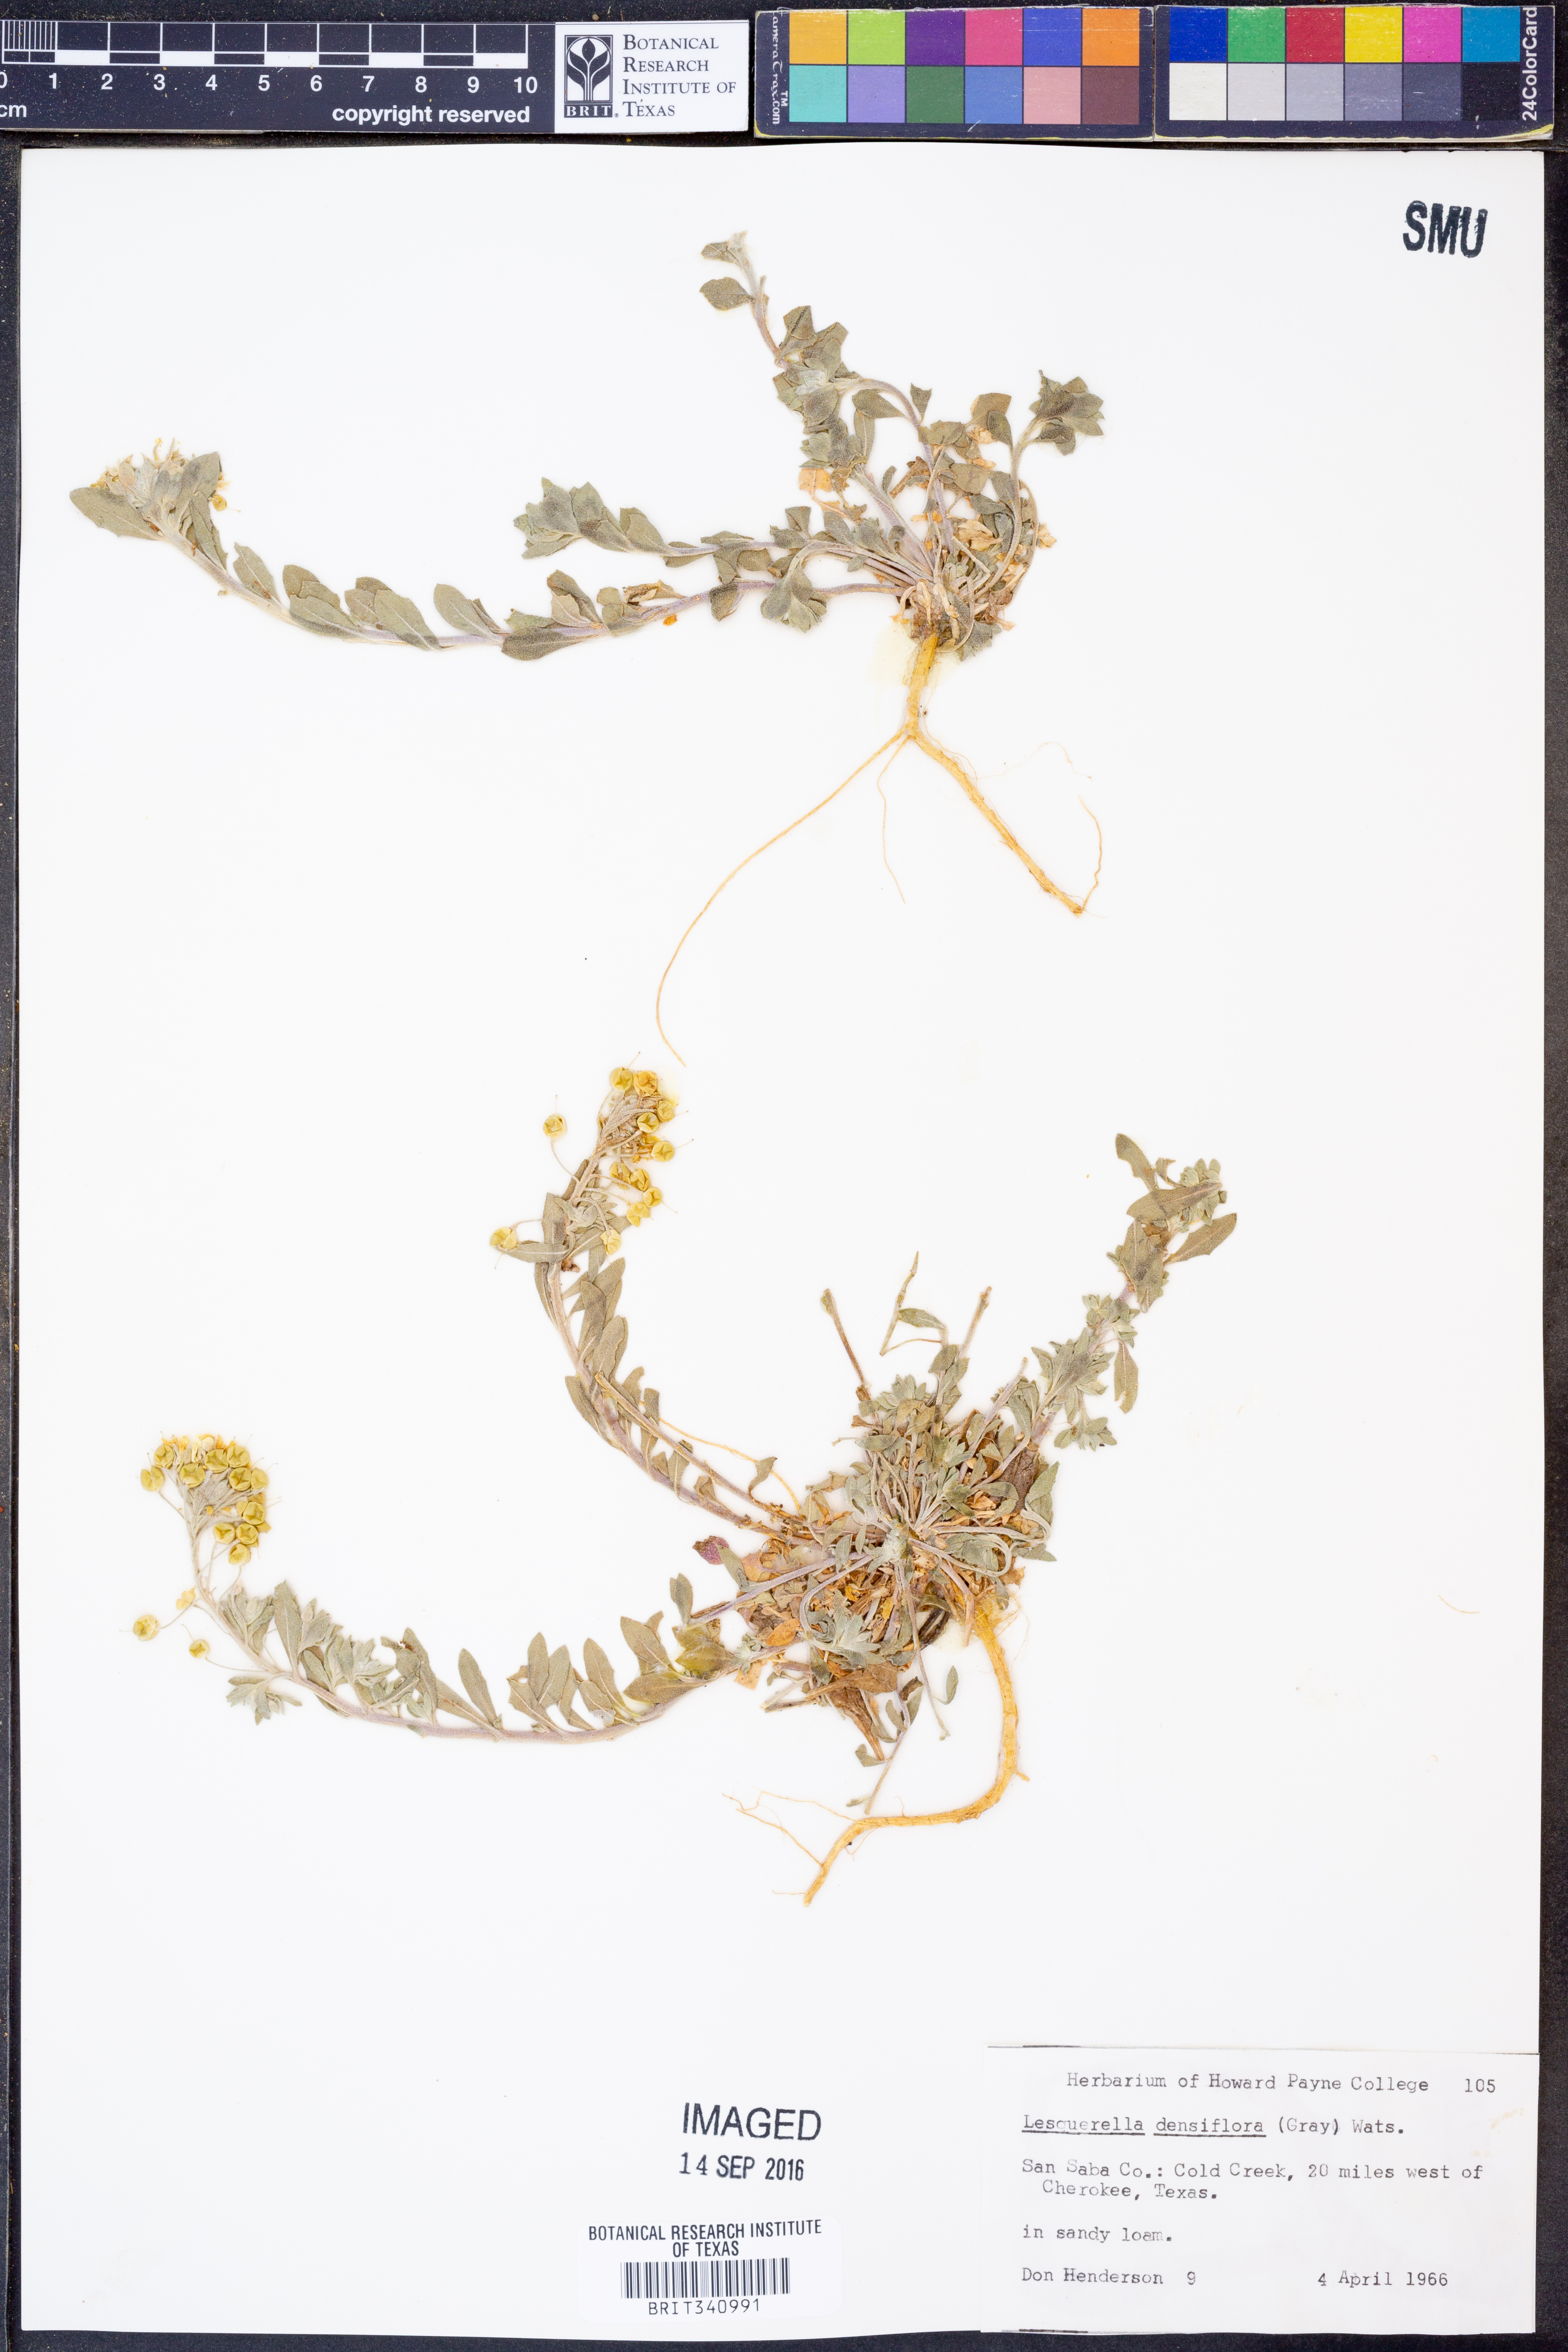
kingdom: Plantae
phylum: Tracheophyta
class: Magnoliopsida
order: Brassicales
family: Brassicaceae
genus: Physaria
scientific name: Physaria densiflora
